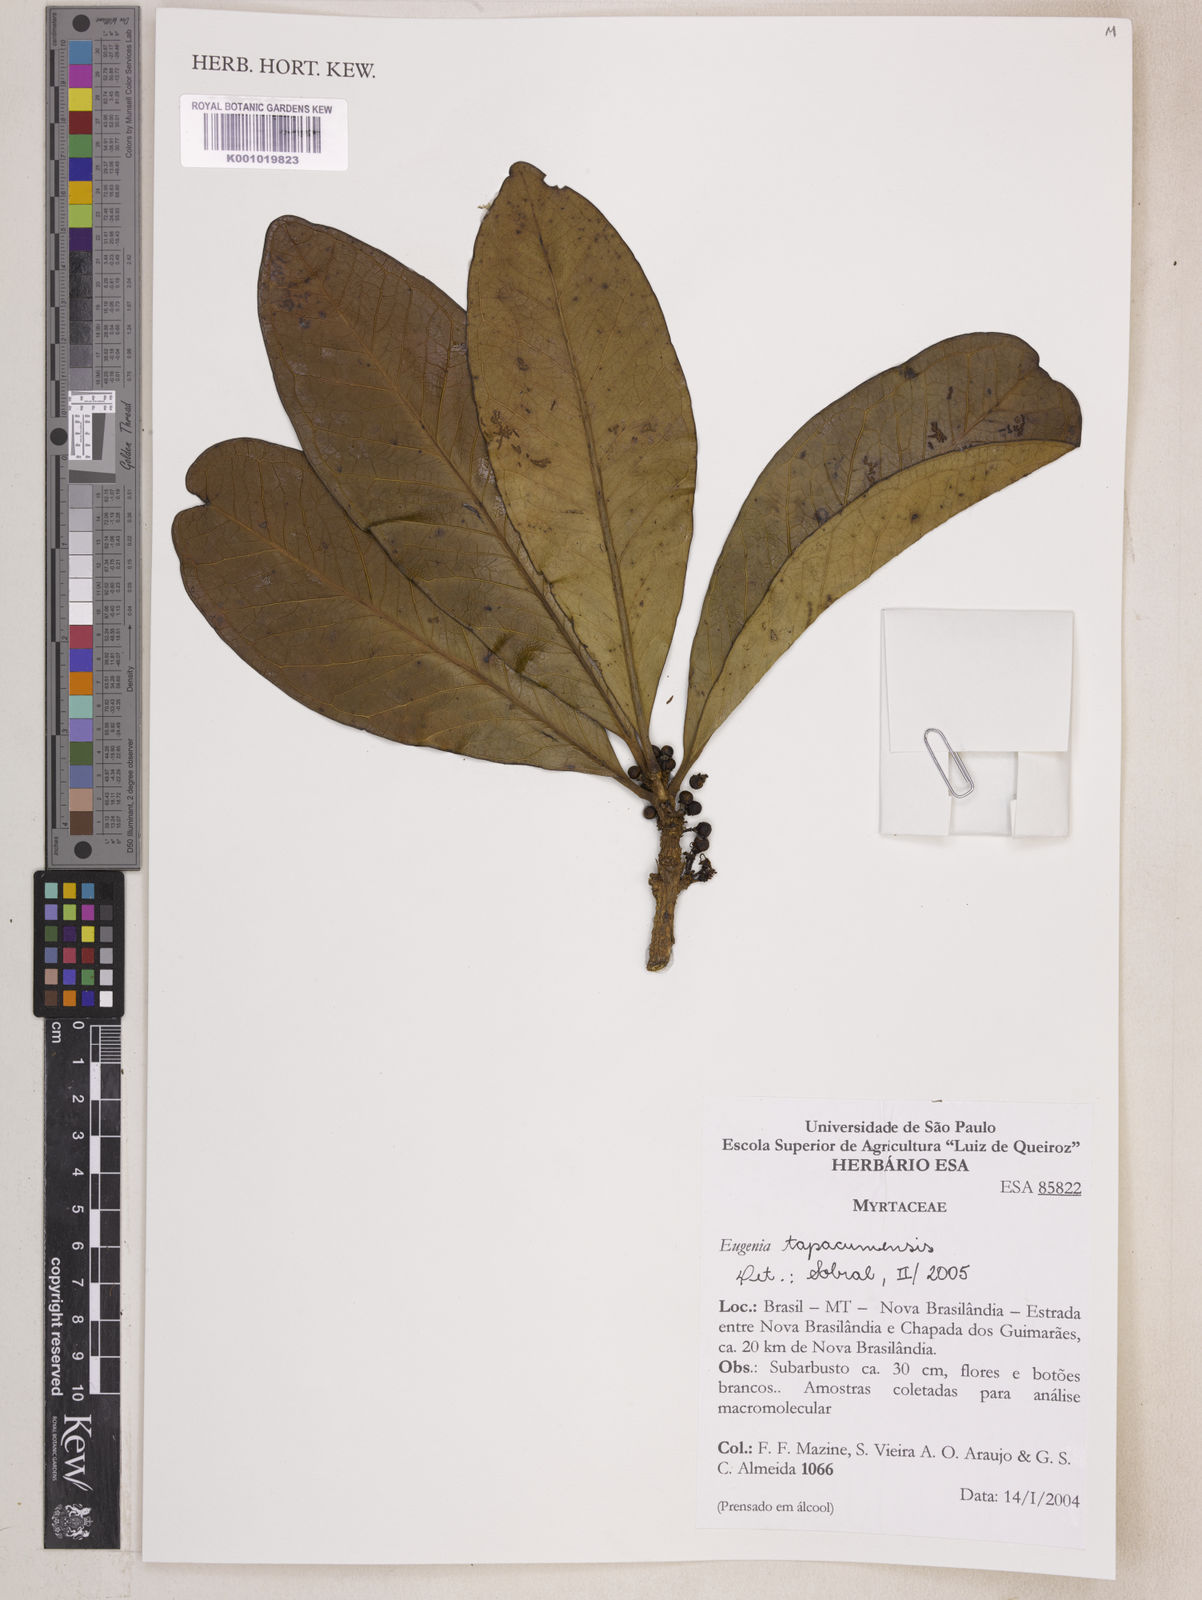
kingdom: Plantae
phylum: Tracheophyta
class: Magnoliopsida
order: Myrtales
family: Myrtaceae
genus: Eugenia
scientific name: Eugenia stictopetala
